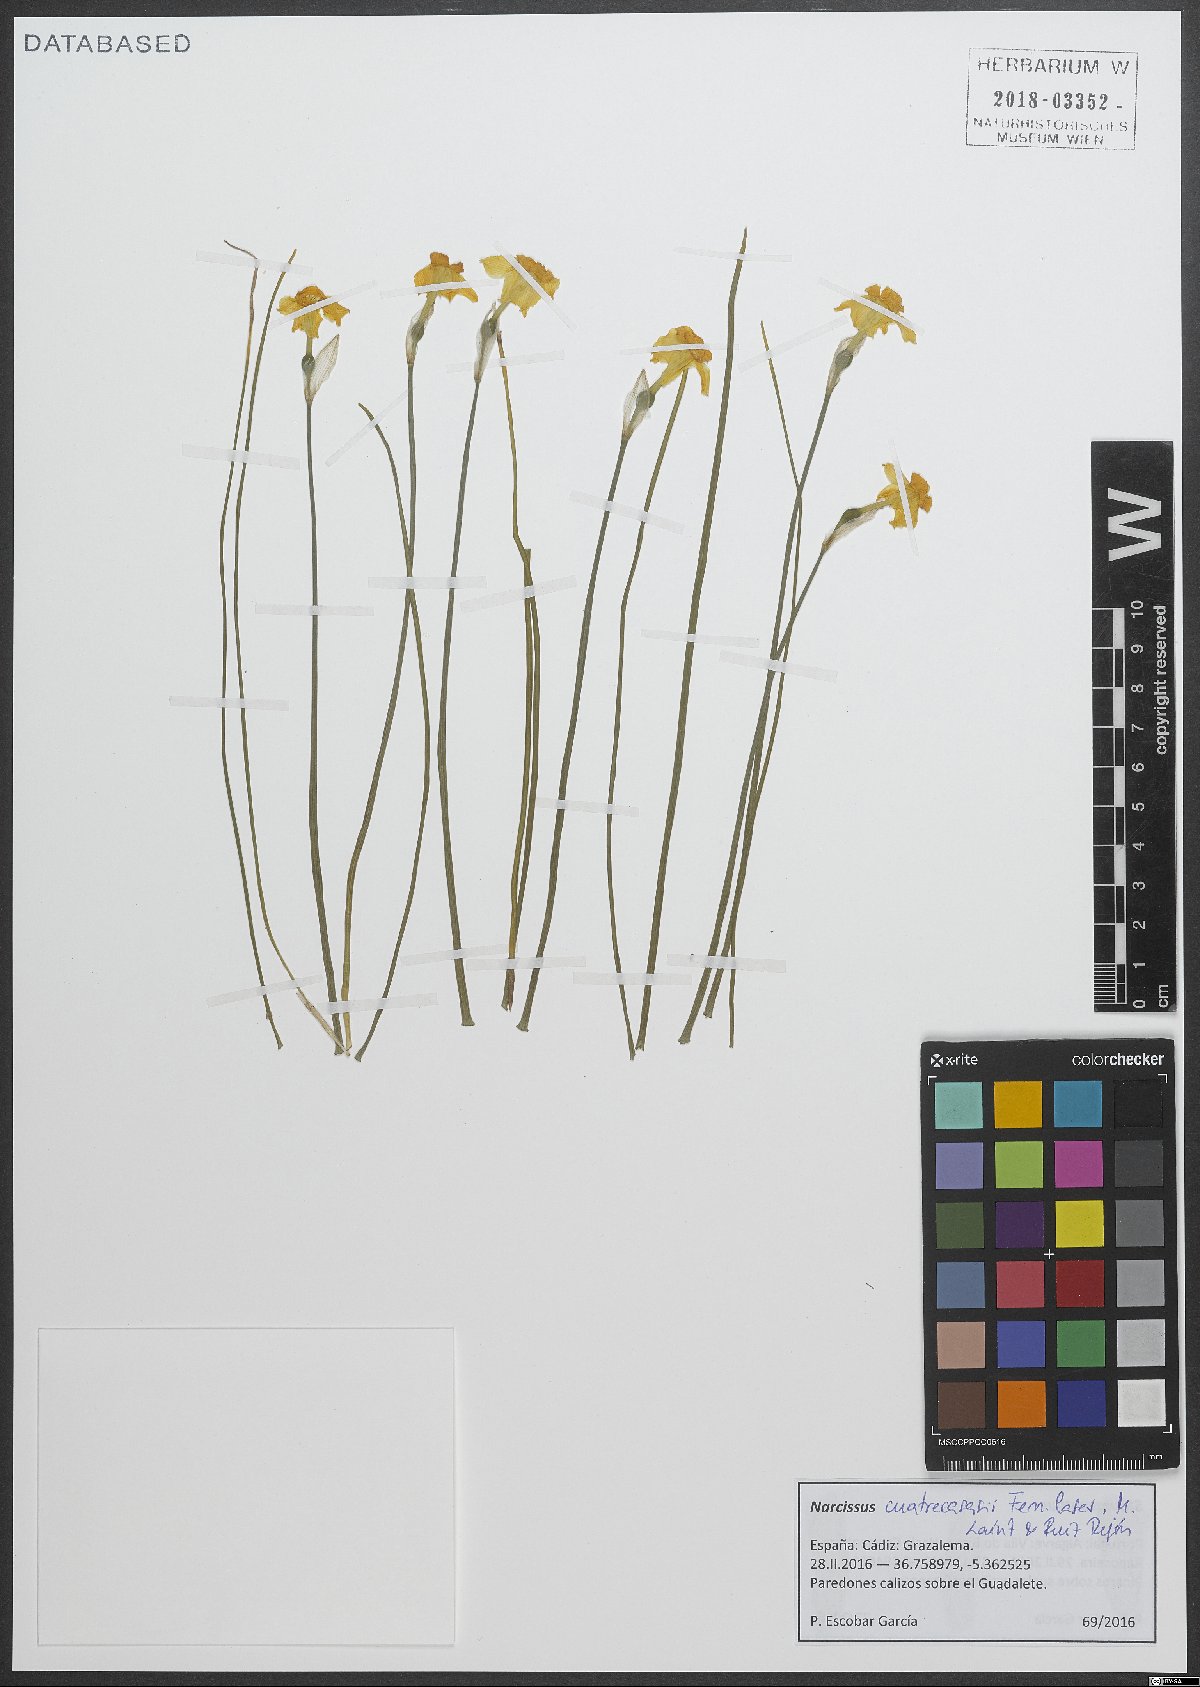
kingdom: Plantae
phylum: Tracheophyta
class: Liliopsida
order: Asparagales
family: Amaryllidaceae
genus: Narcissus
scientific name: Narcissus cuatrecasasii
